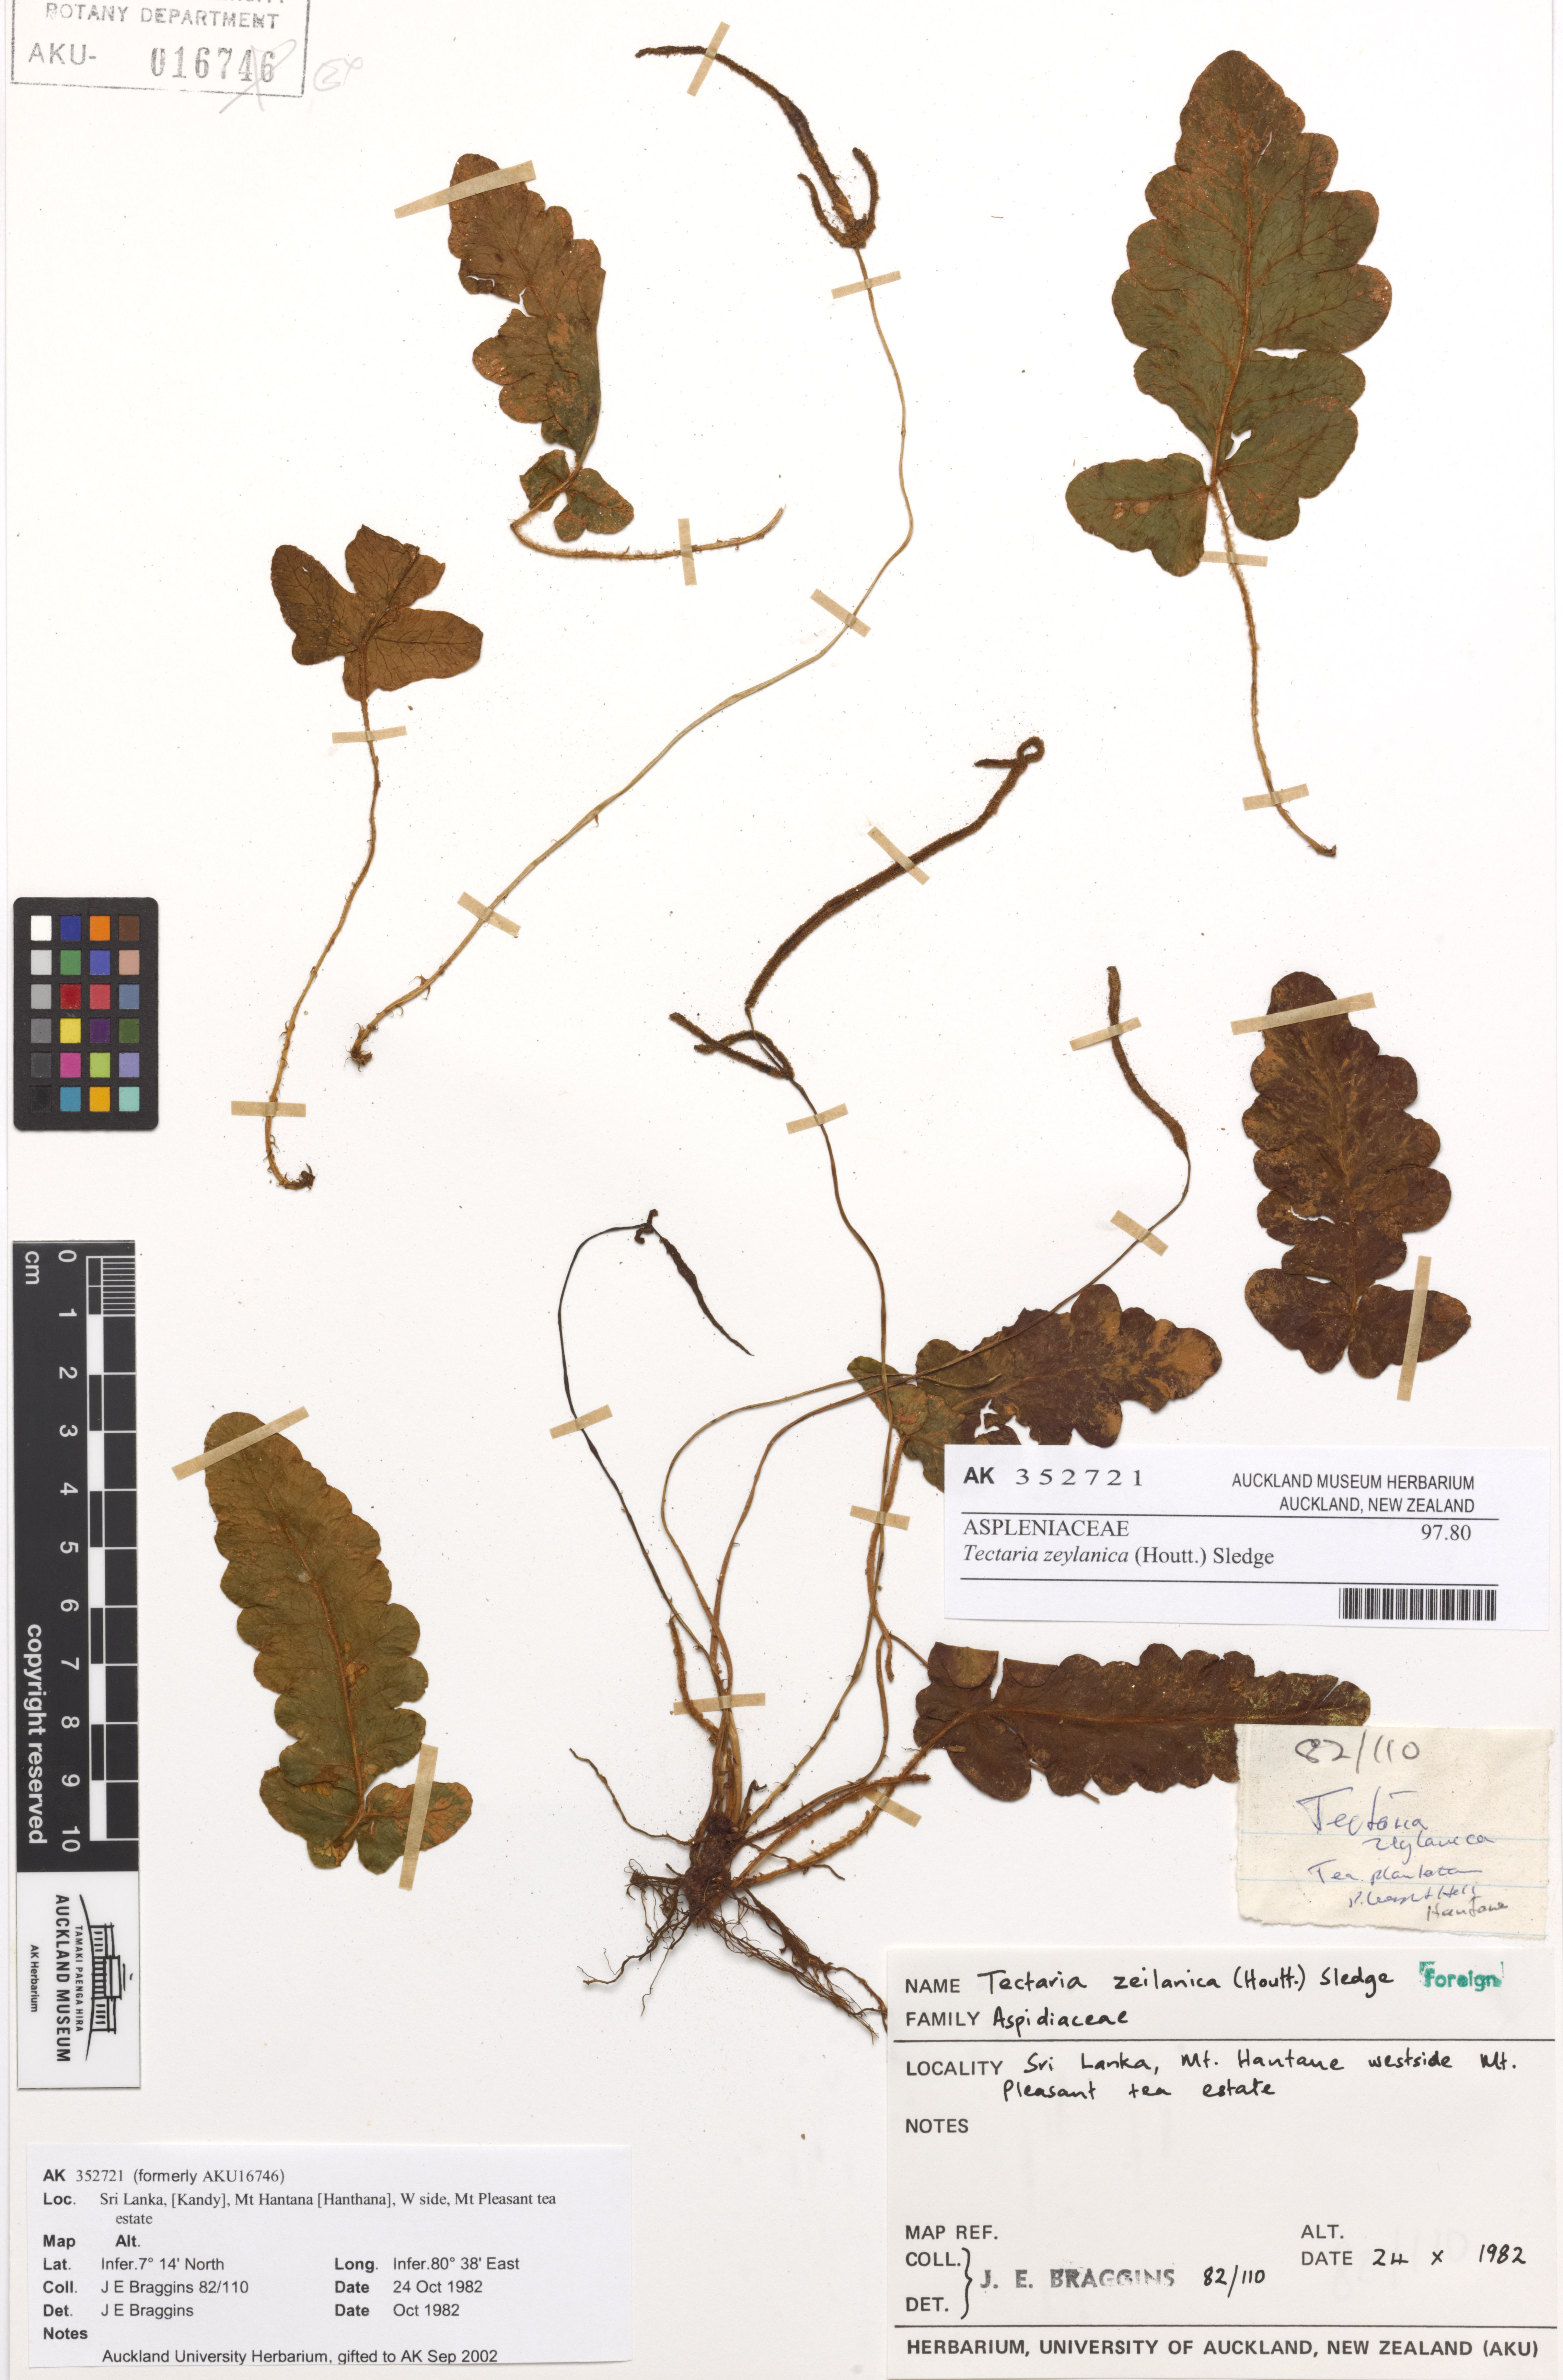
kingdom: Plantae
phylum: Tracheophyta
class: Polypodiopsida
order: Polypodiales
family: Tectariaceae
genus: Tectaria
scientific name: Tectaria zeilanica
